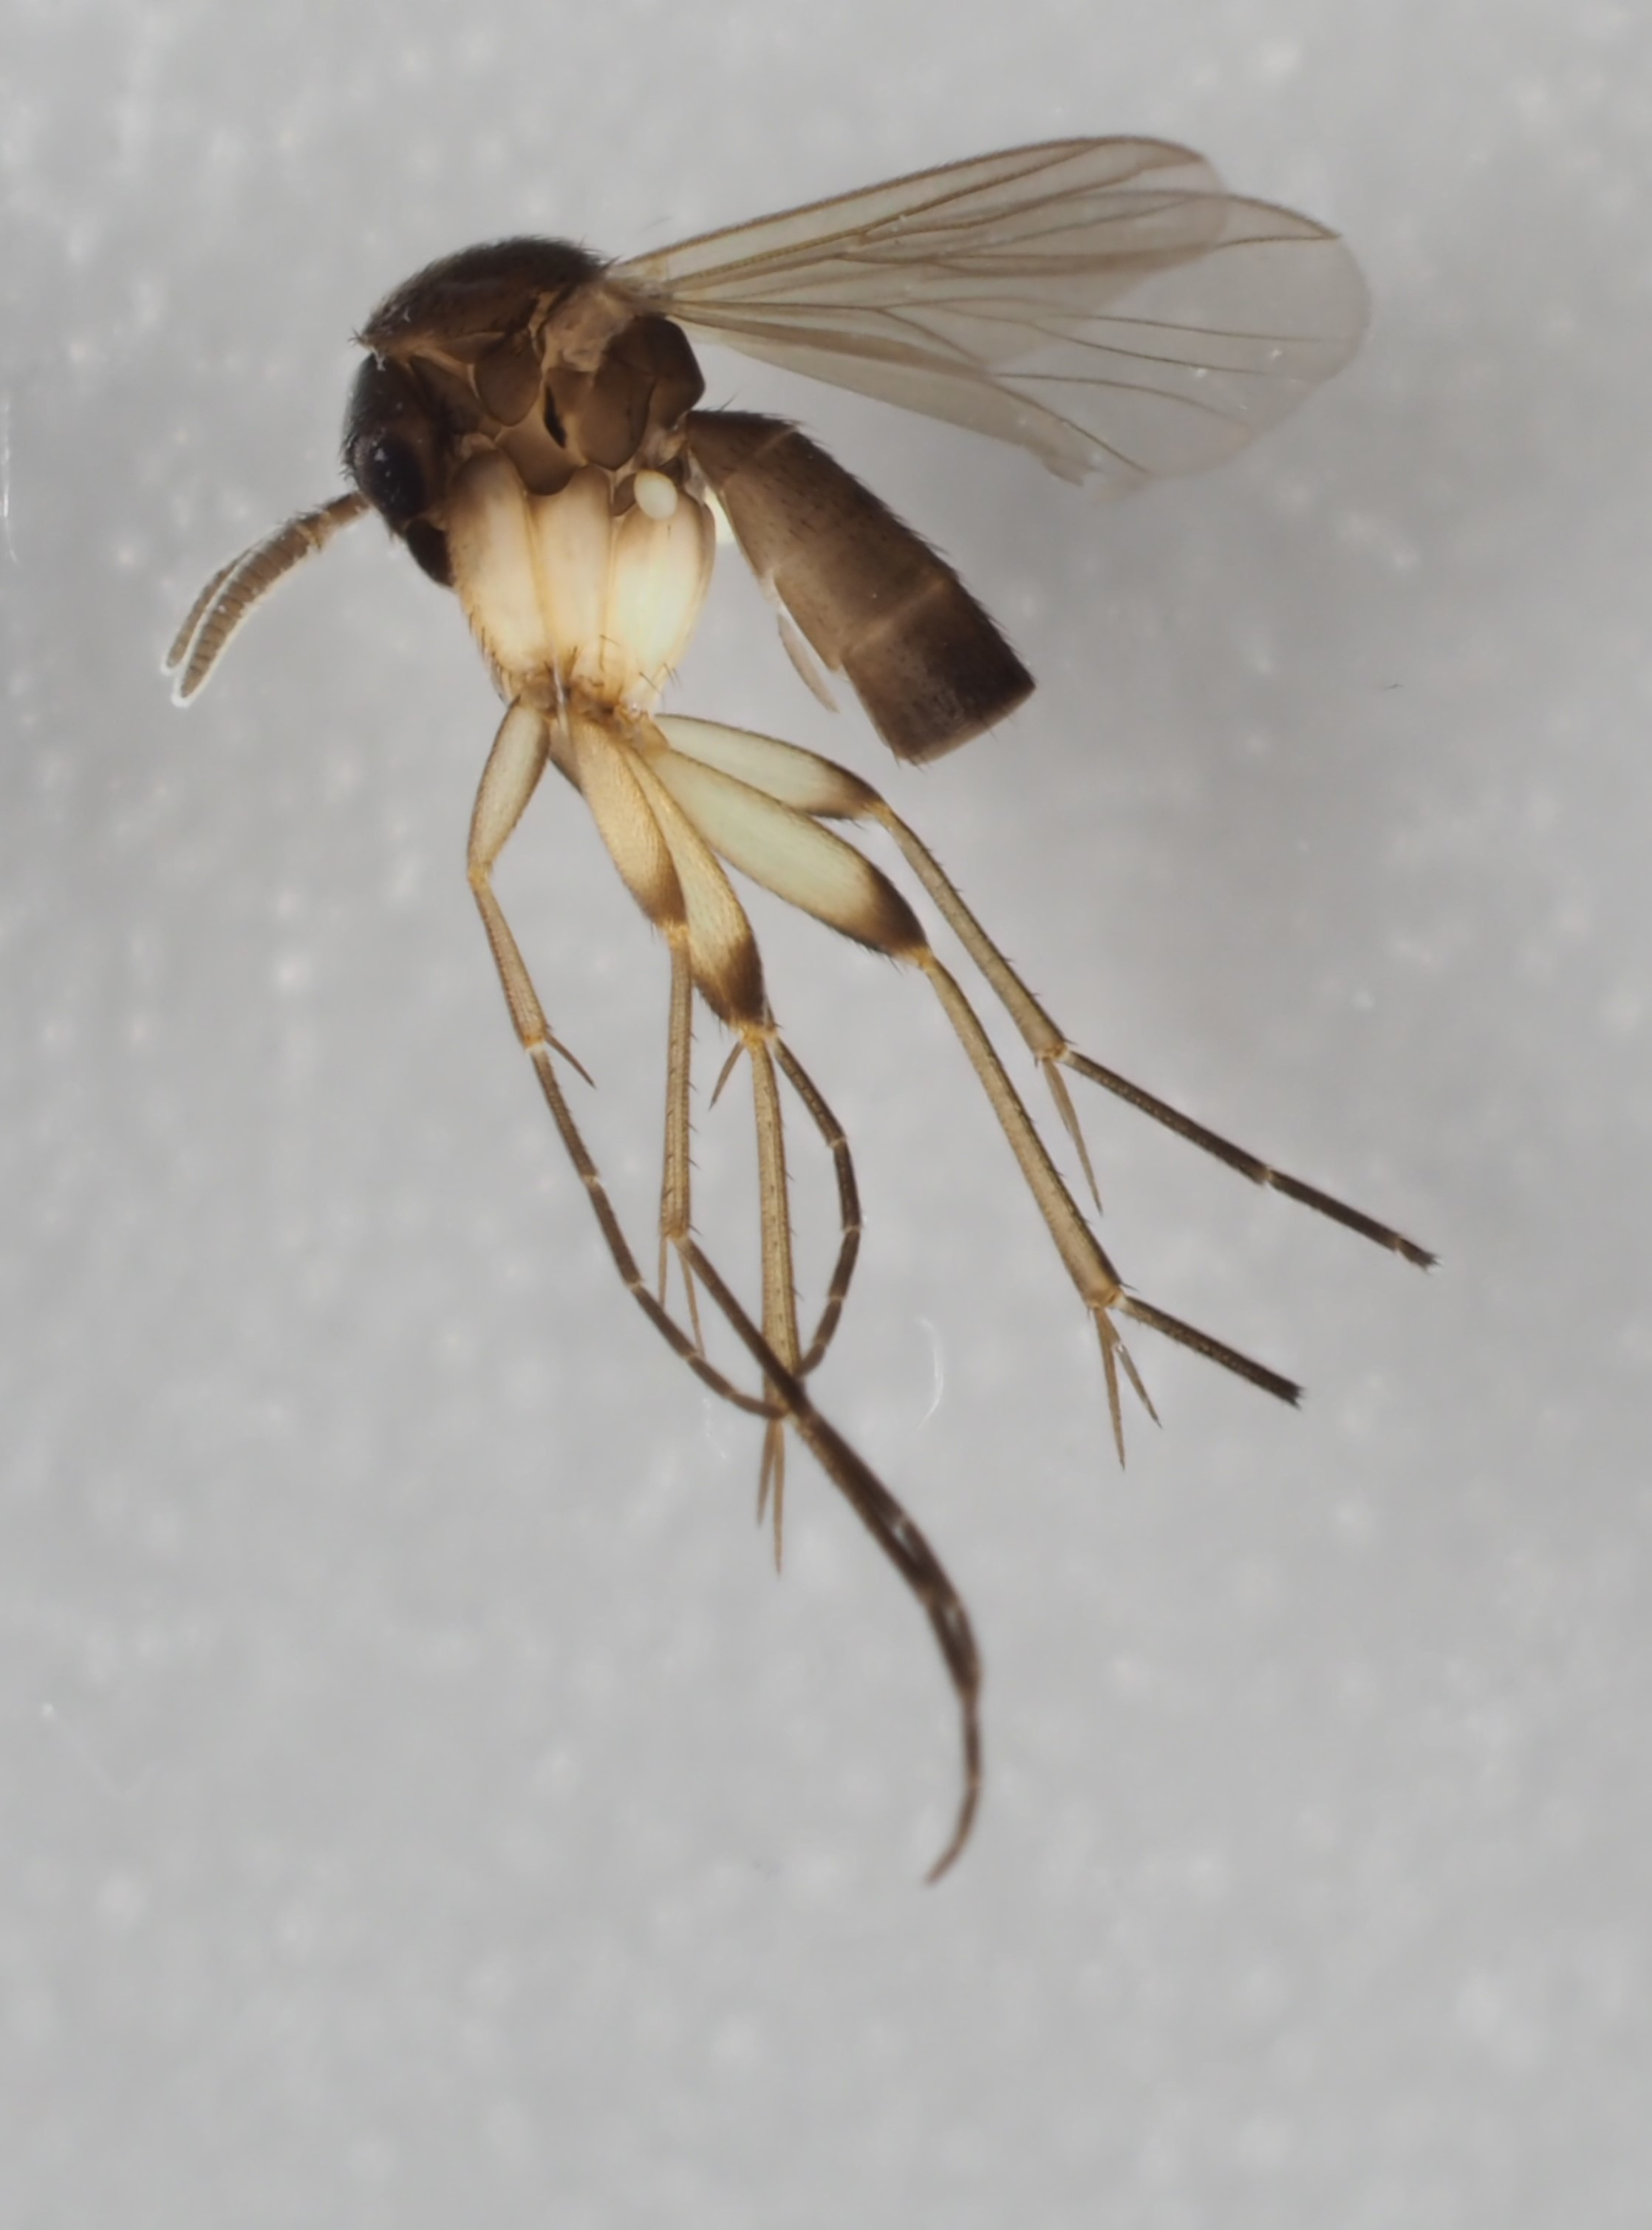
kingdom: Animalia
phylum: Arthropoda
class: Insecta
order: Diptera
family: Mycetophilidae
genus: Cordyla
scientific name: Cordyla crassicornis
